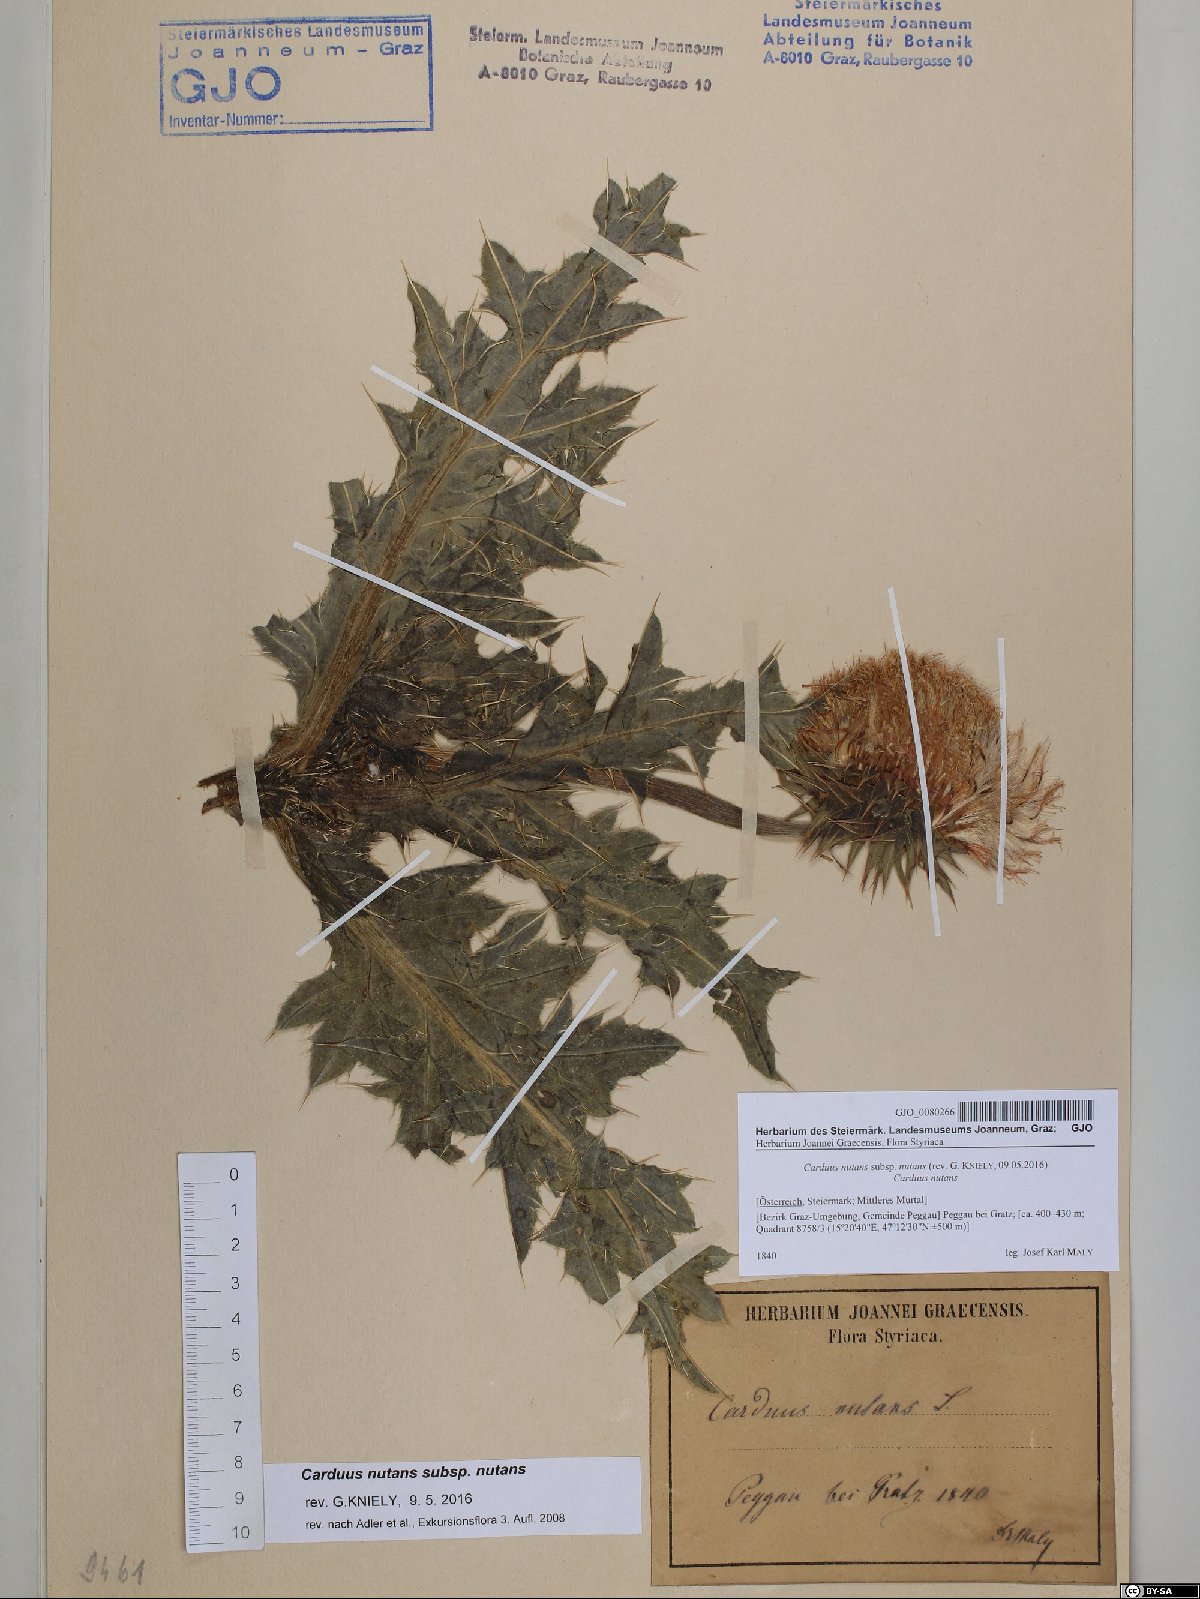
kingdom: Plantae
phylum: Tracheophyta
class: Magnoliopsida
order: Asterales
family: Asteraceae
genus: Carduus
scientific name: Carduus nutans
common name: Musk thistle
